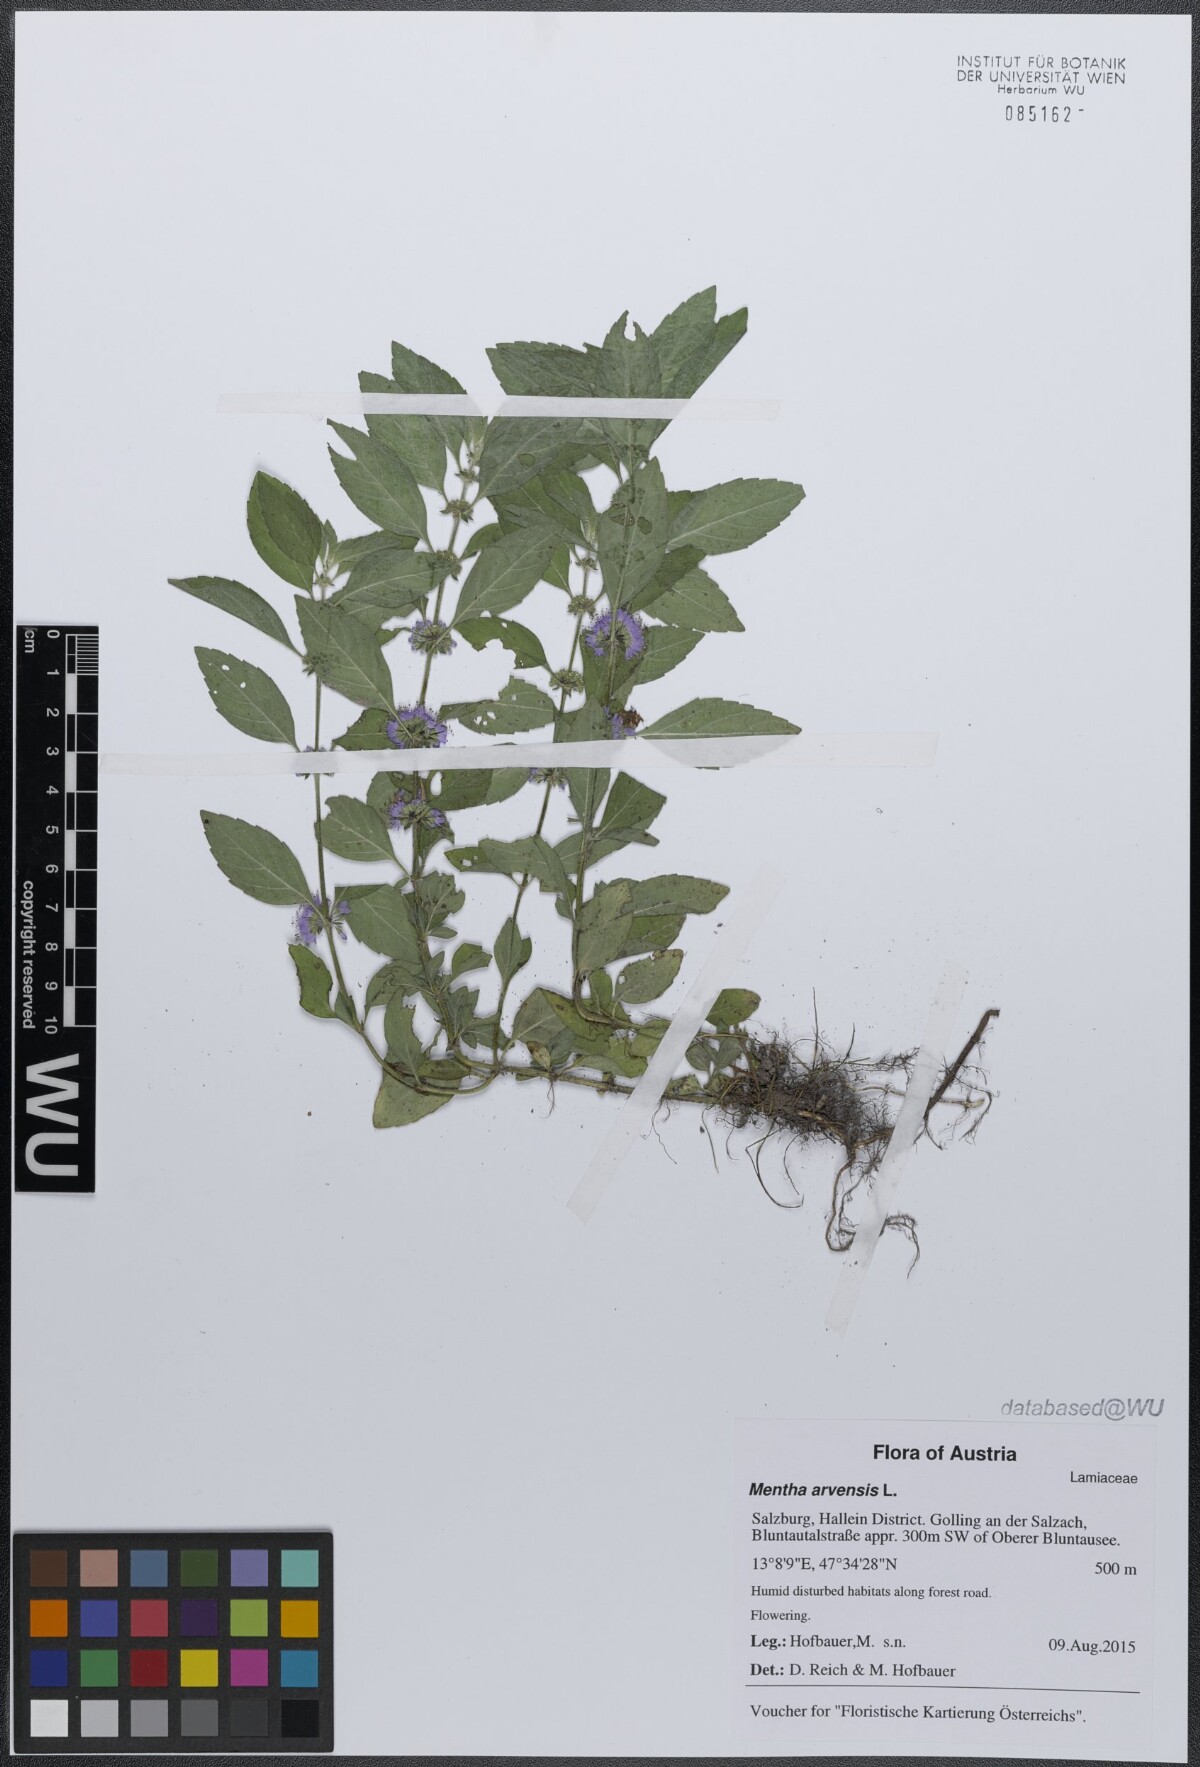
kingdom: Plantae
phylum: Tracheophyta
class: Magnoliopsida
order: Lamiales
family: Lamiaceae
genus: Mentha
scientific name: Mentha arvensis
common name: Corn mint
